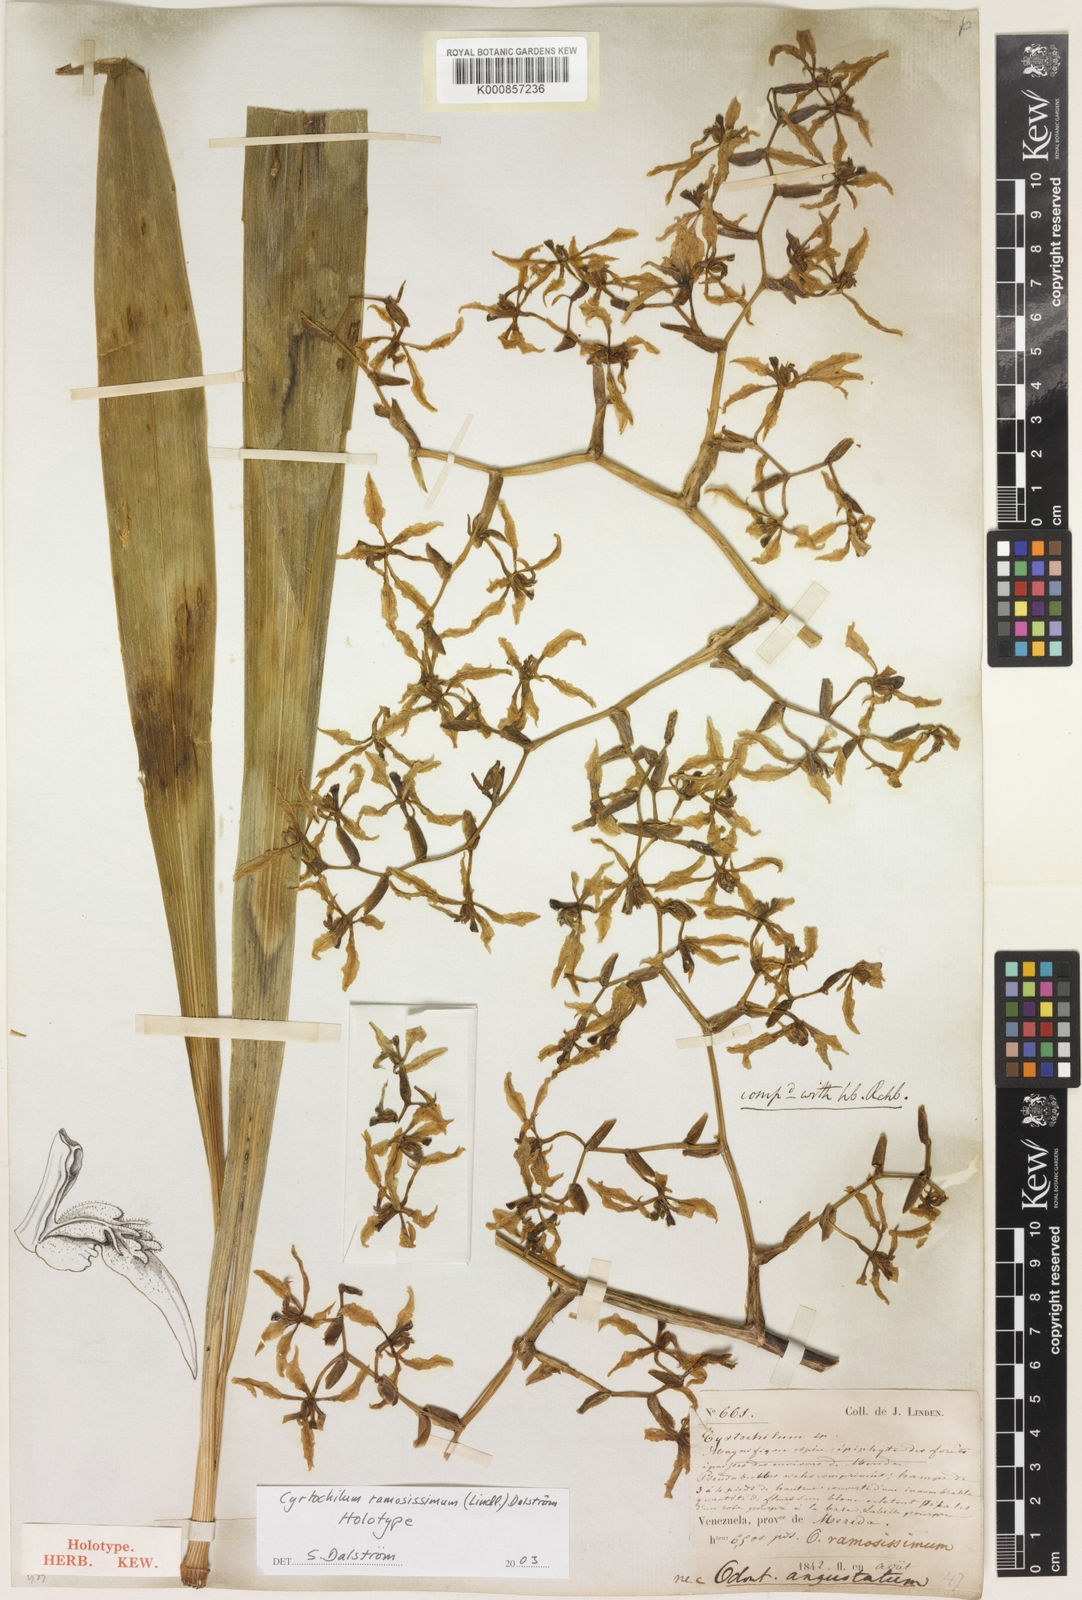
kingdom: Plantae
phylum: Tracheophyta
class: Liliopsida
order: Asparagales
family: Orchidaceae
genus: Cyrtochilum
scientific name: Cyrtochilum
